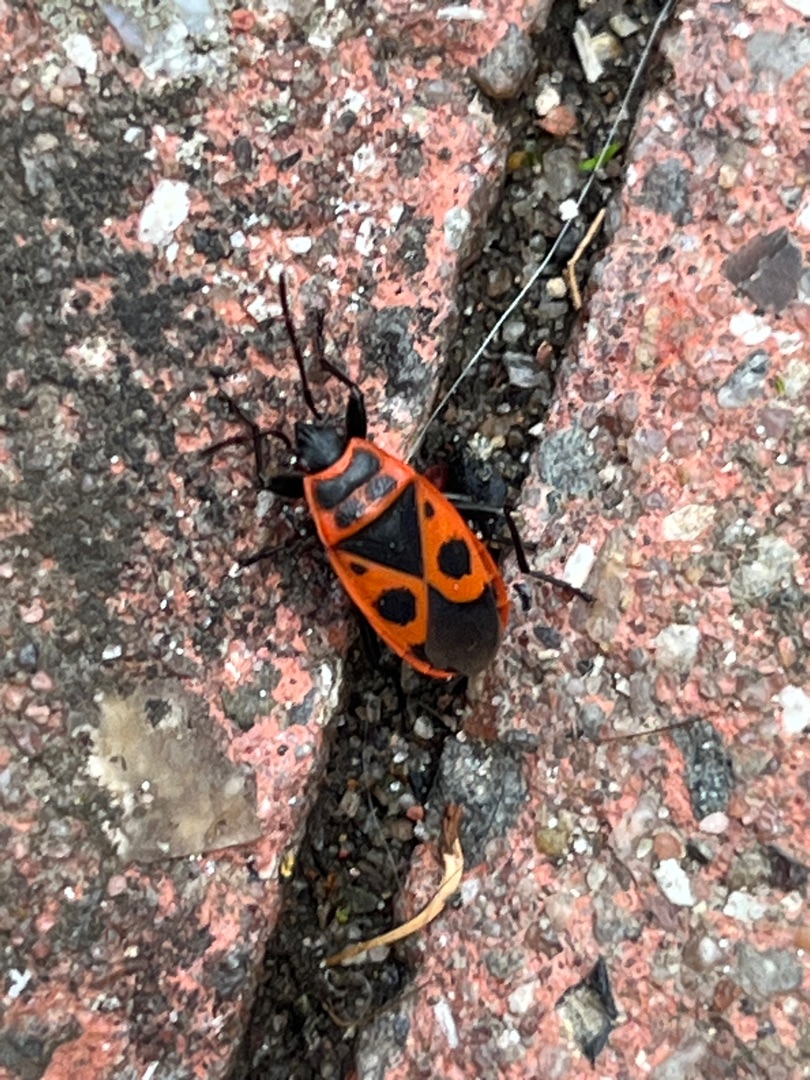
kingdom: Animalia
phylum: Arthropoda
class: Insecta
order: Hemiptera
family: Pyrrhocoridae
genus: Pyrrhocoris
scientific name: Pyrrhocoris apterus
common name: Ildtæge
